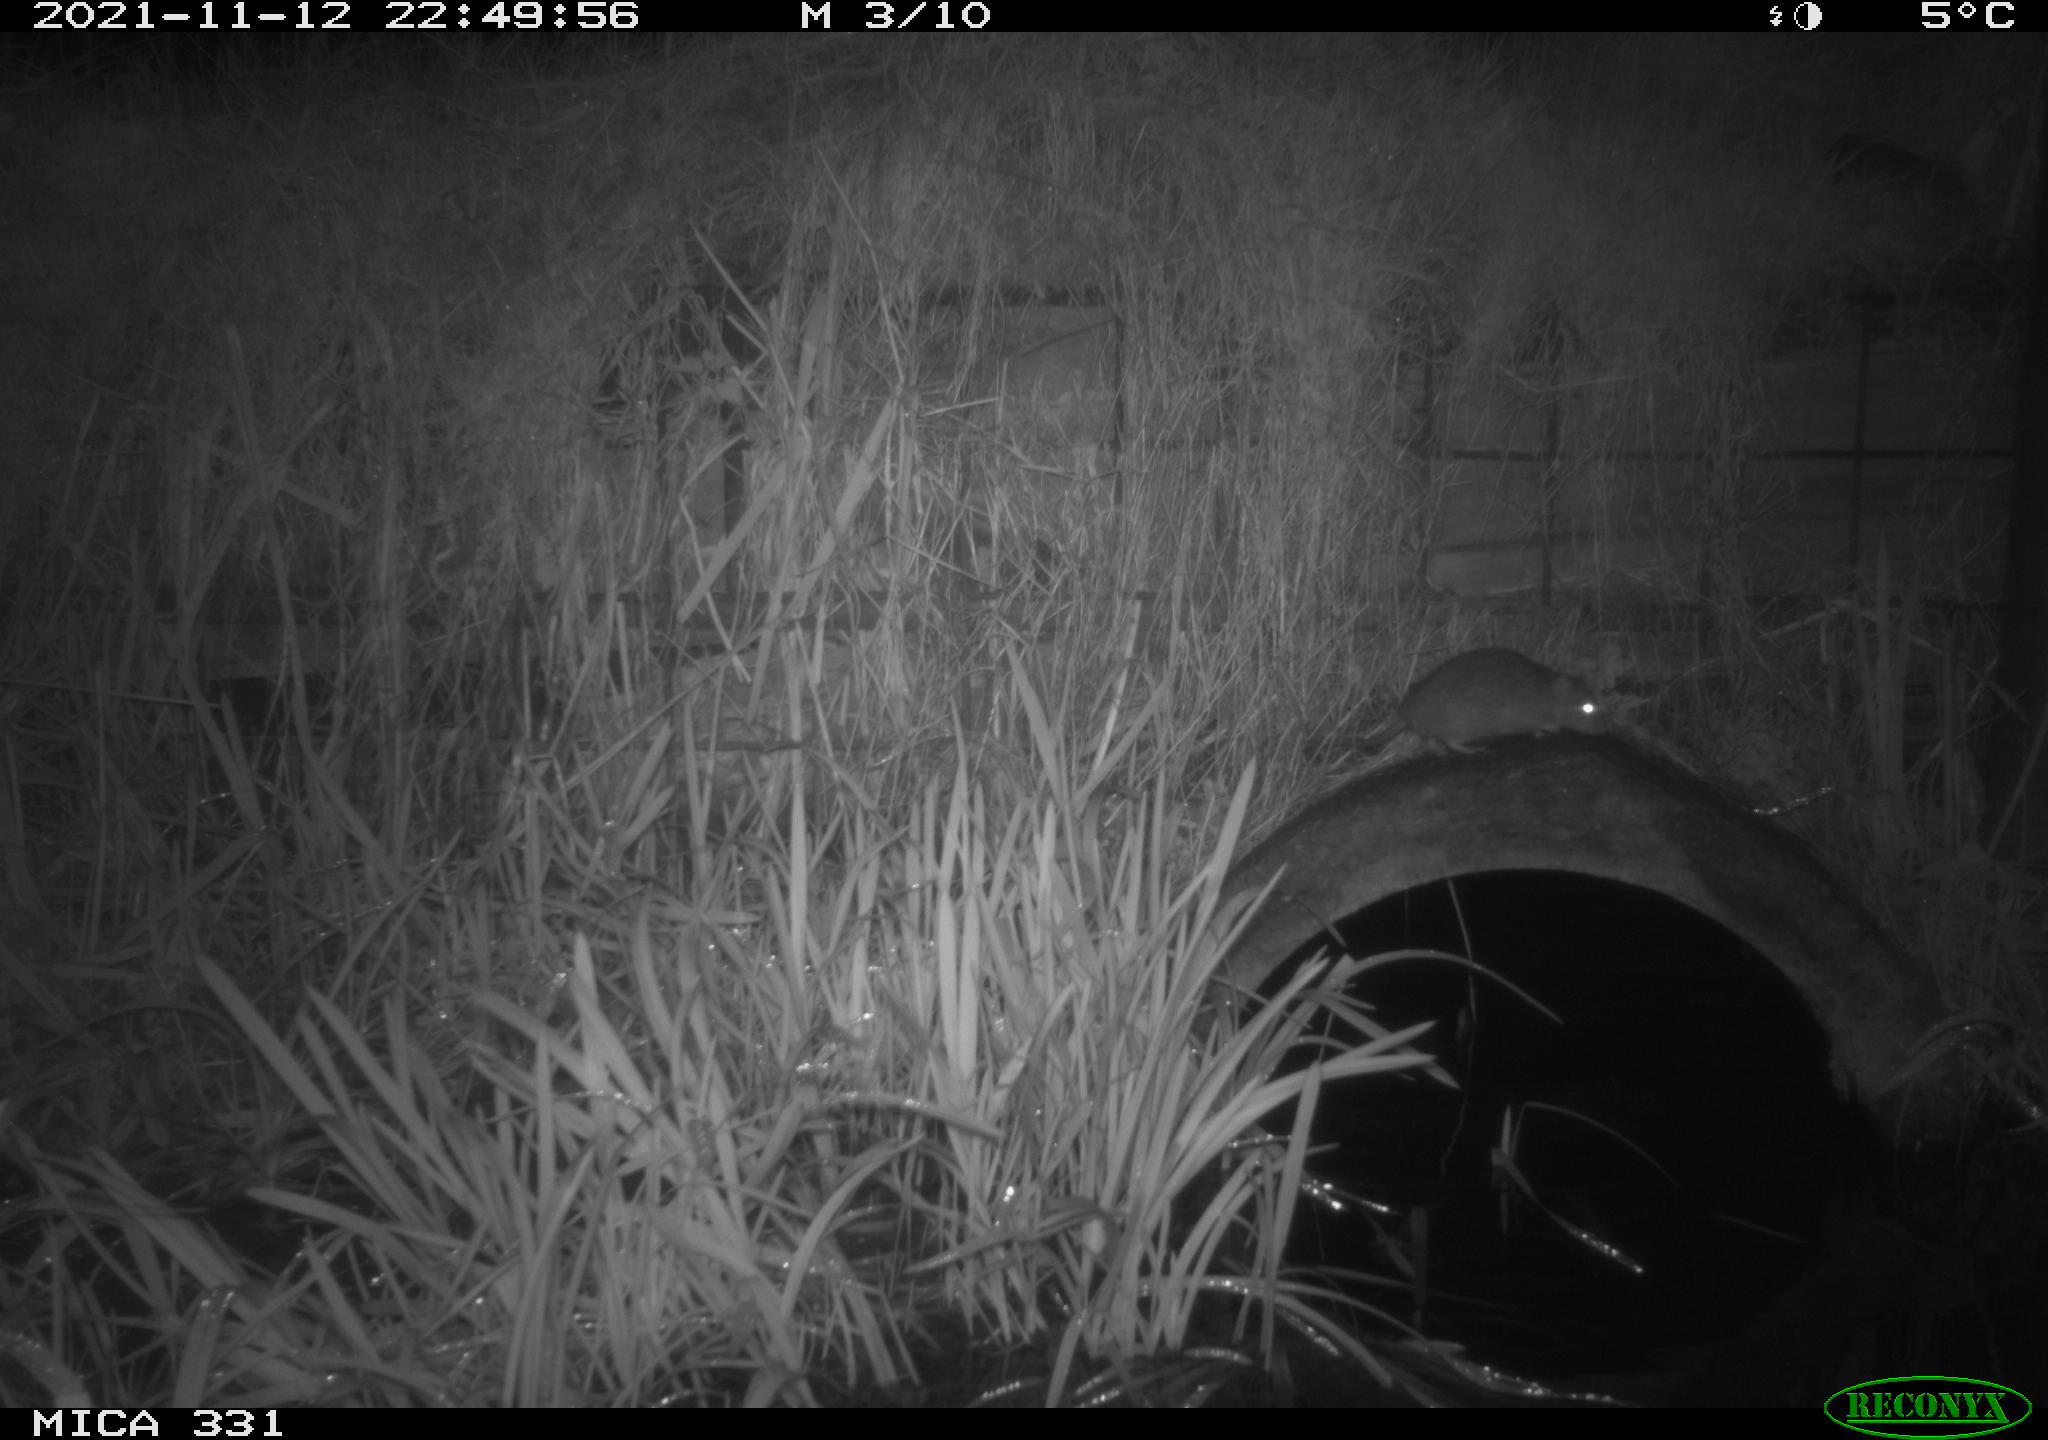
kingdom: Animalia
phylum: Chordata
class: Mammalia
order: Rodentia
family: Muridae
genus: Rattus
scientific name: Rattus norvegicus
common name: Brown rat
